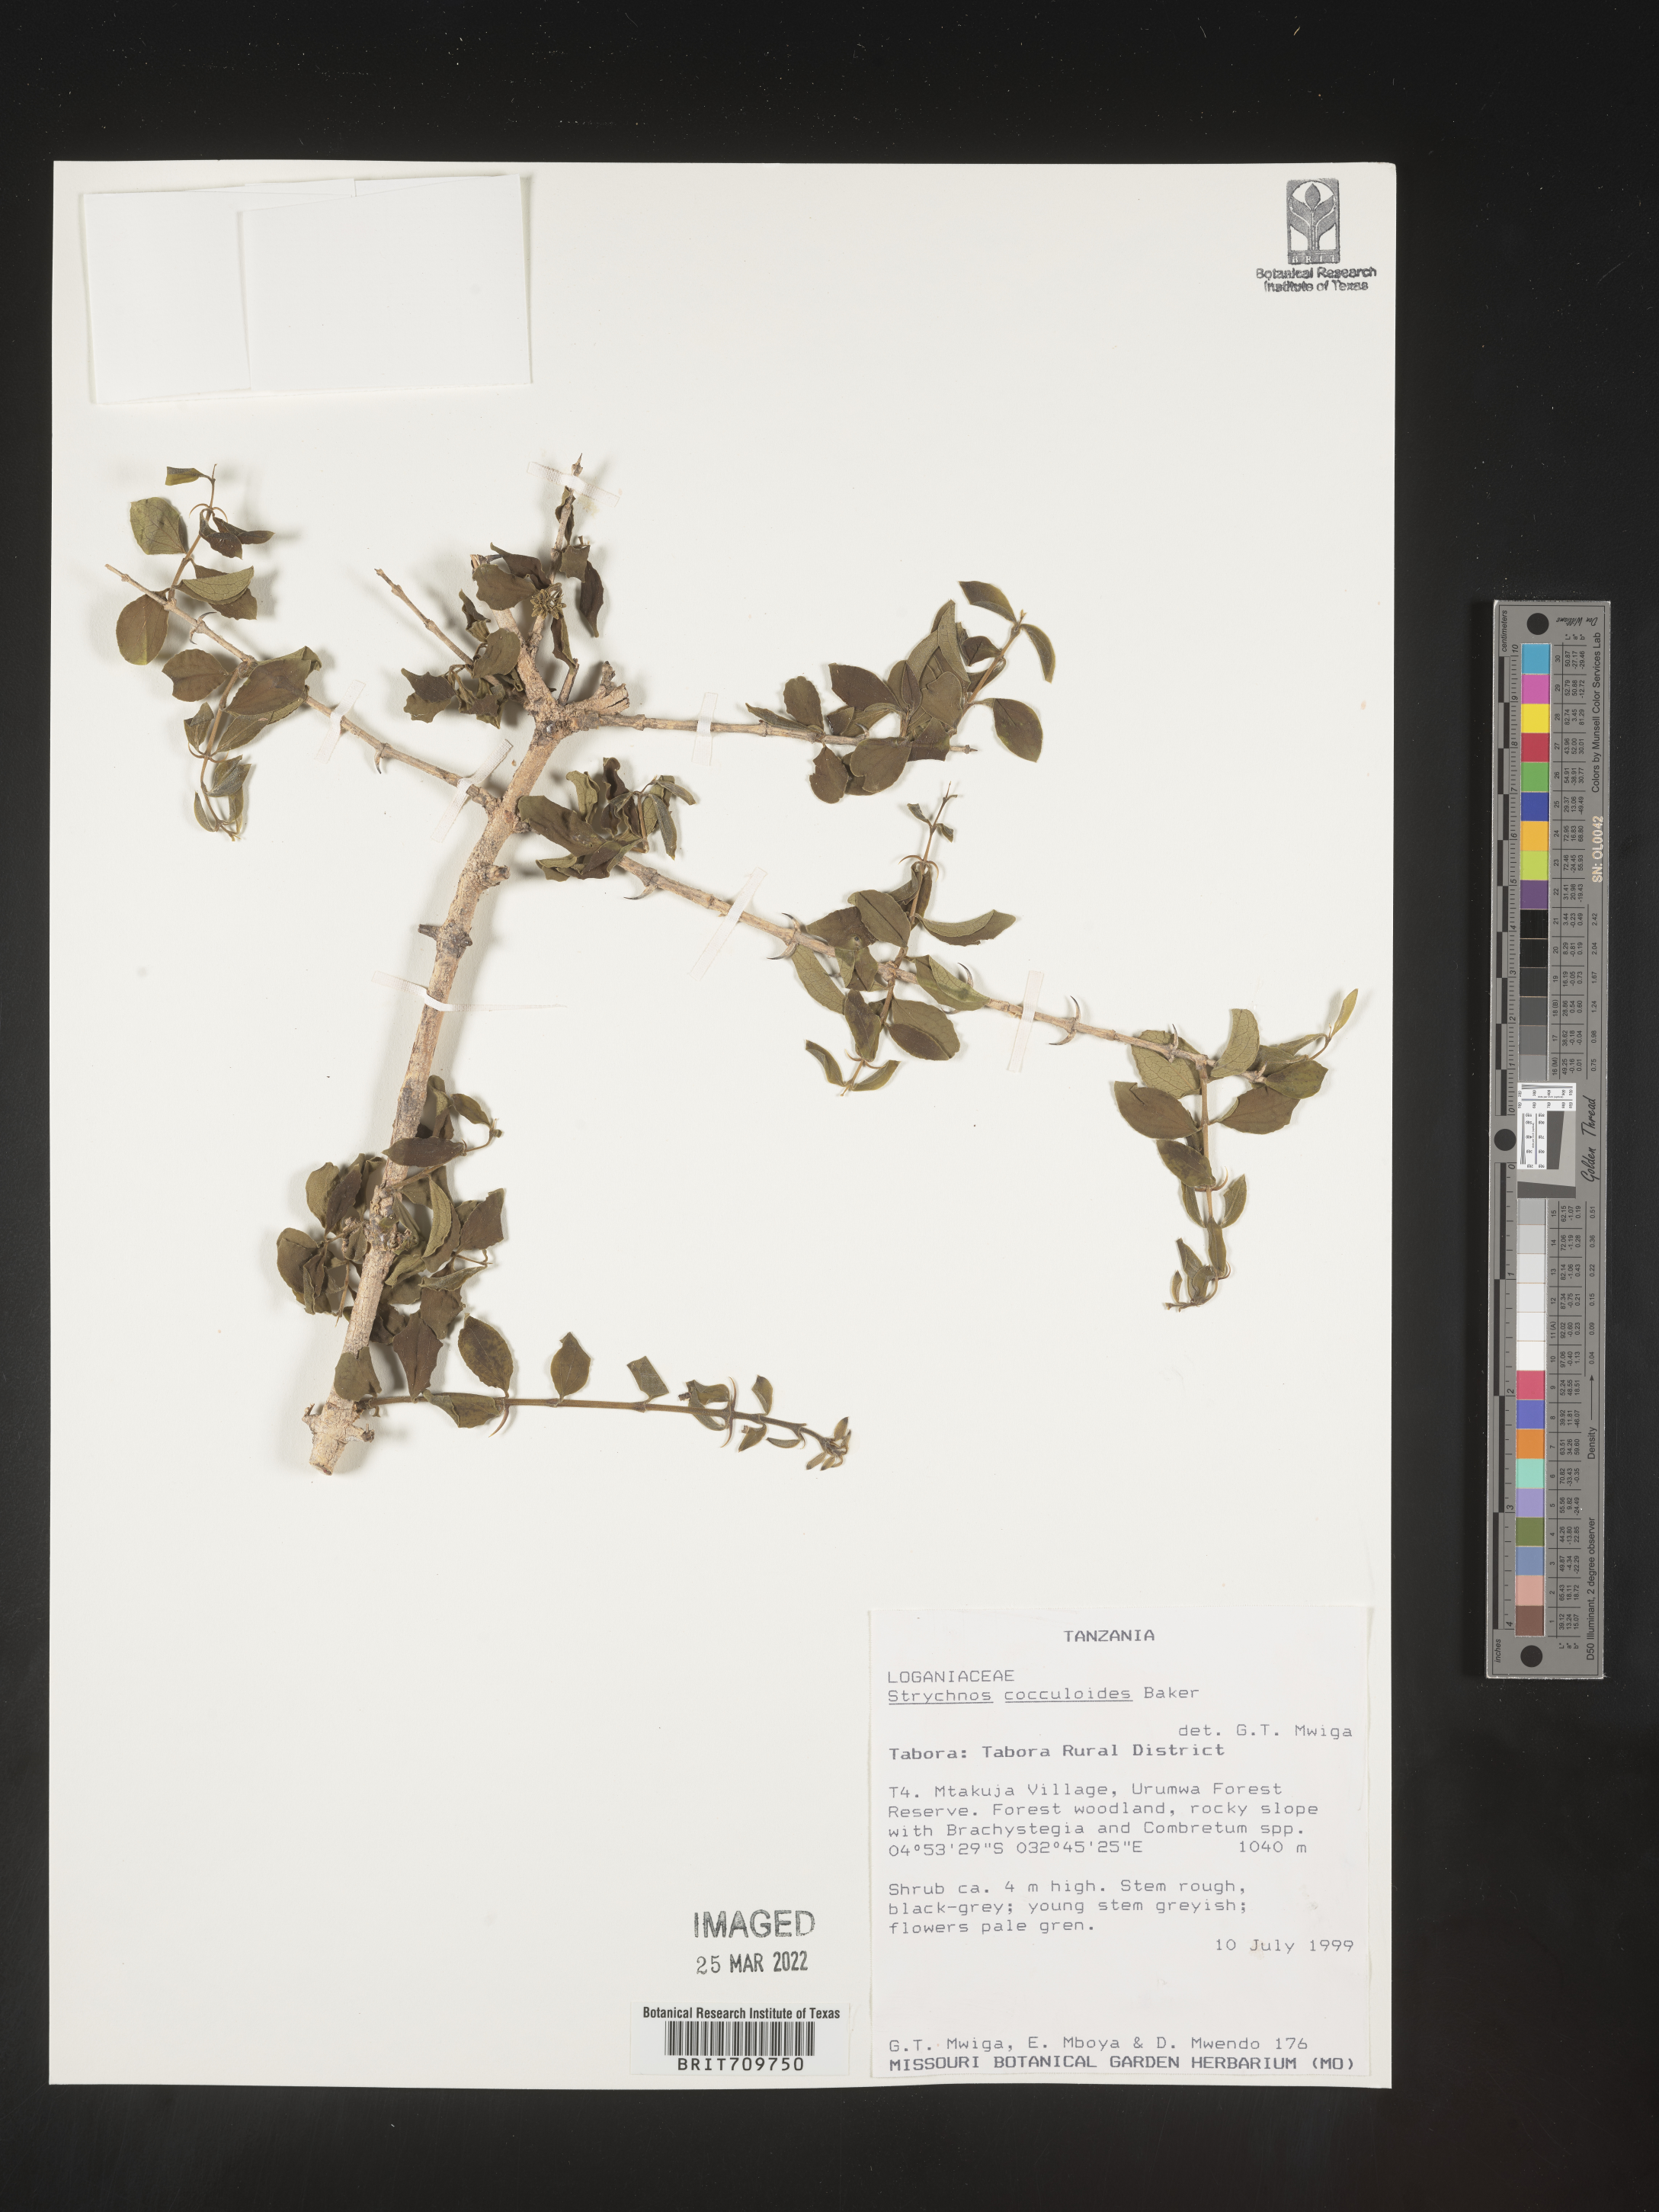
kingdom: Plantae
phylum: Tracheophyta
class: Magnoliopsida
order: Gentianales
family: Loganiaceae
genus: Strychnos
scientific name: Strychnos
